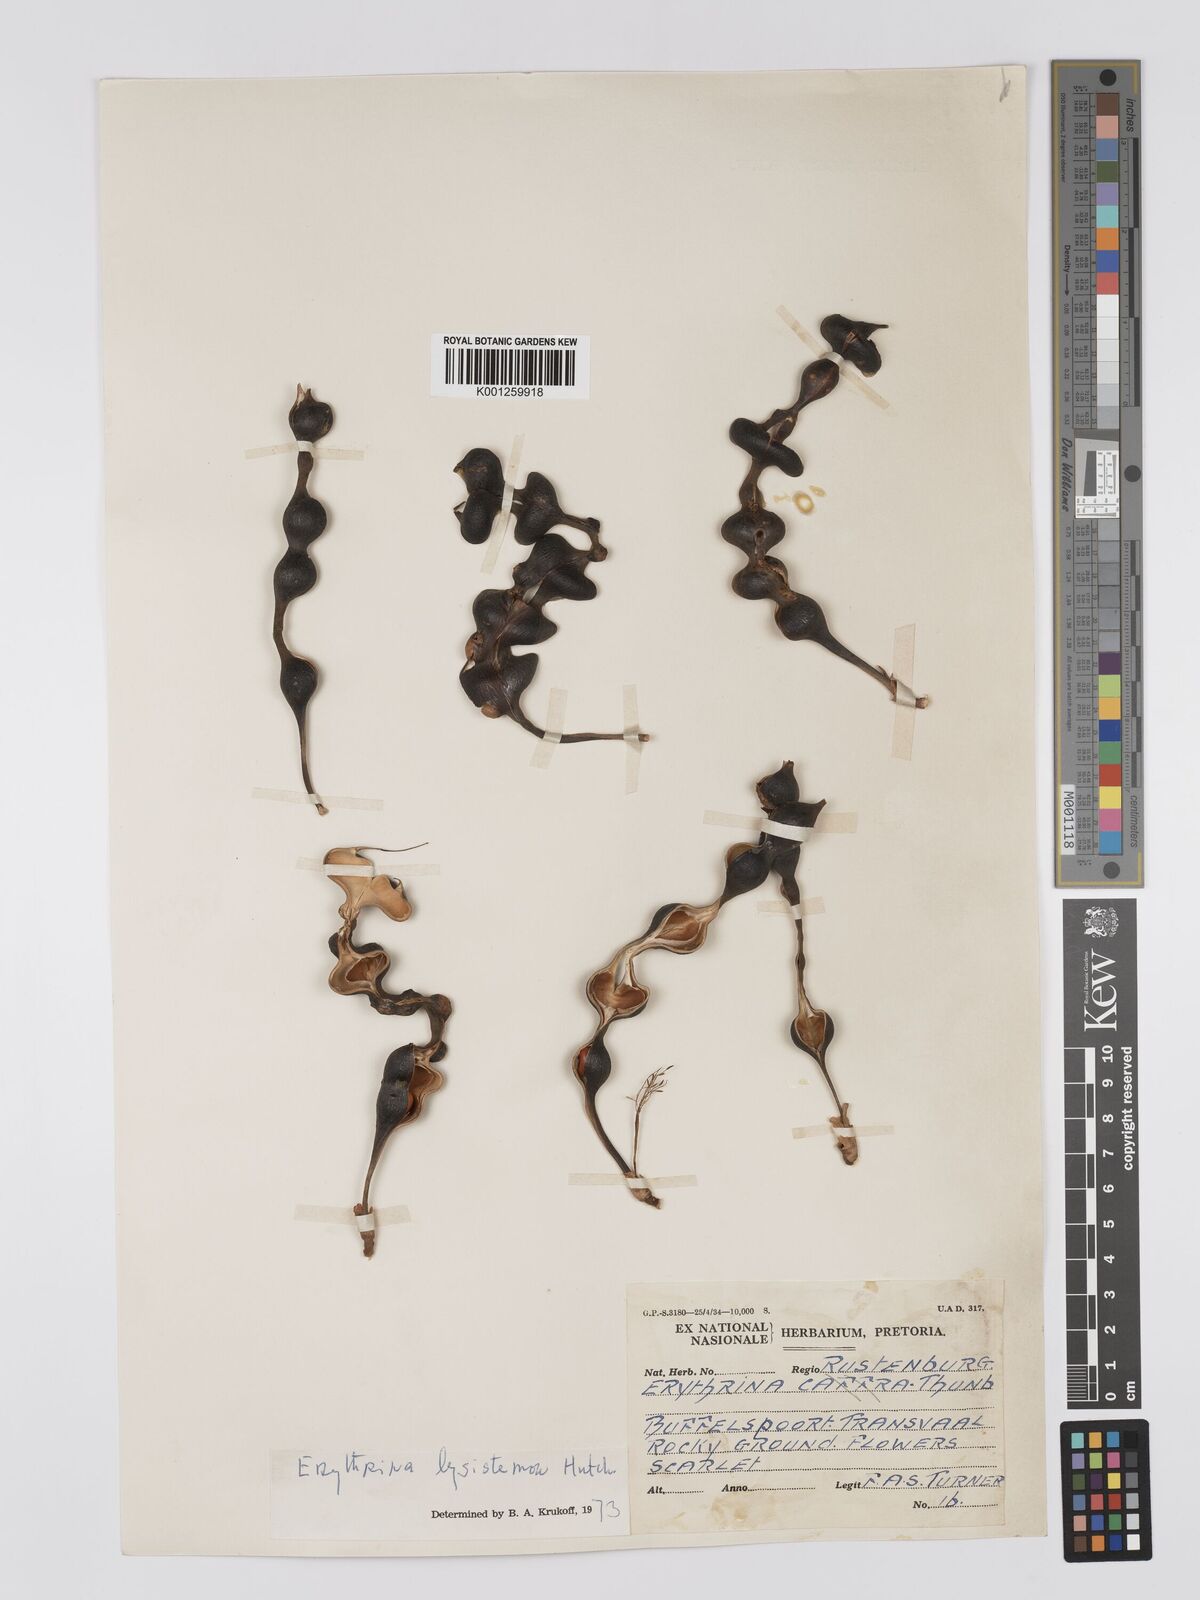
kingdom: Plantae
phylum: Tracheophyta
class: Magnoliopsida
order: Fabales
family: Fabaceae
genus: Erythrina
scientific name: Erythrina lysistemon
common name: Common coral tree
